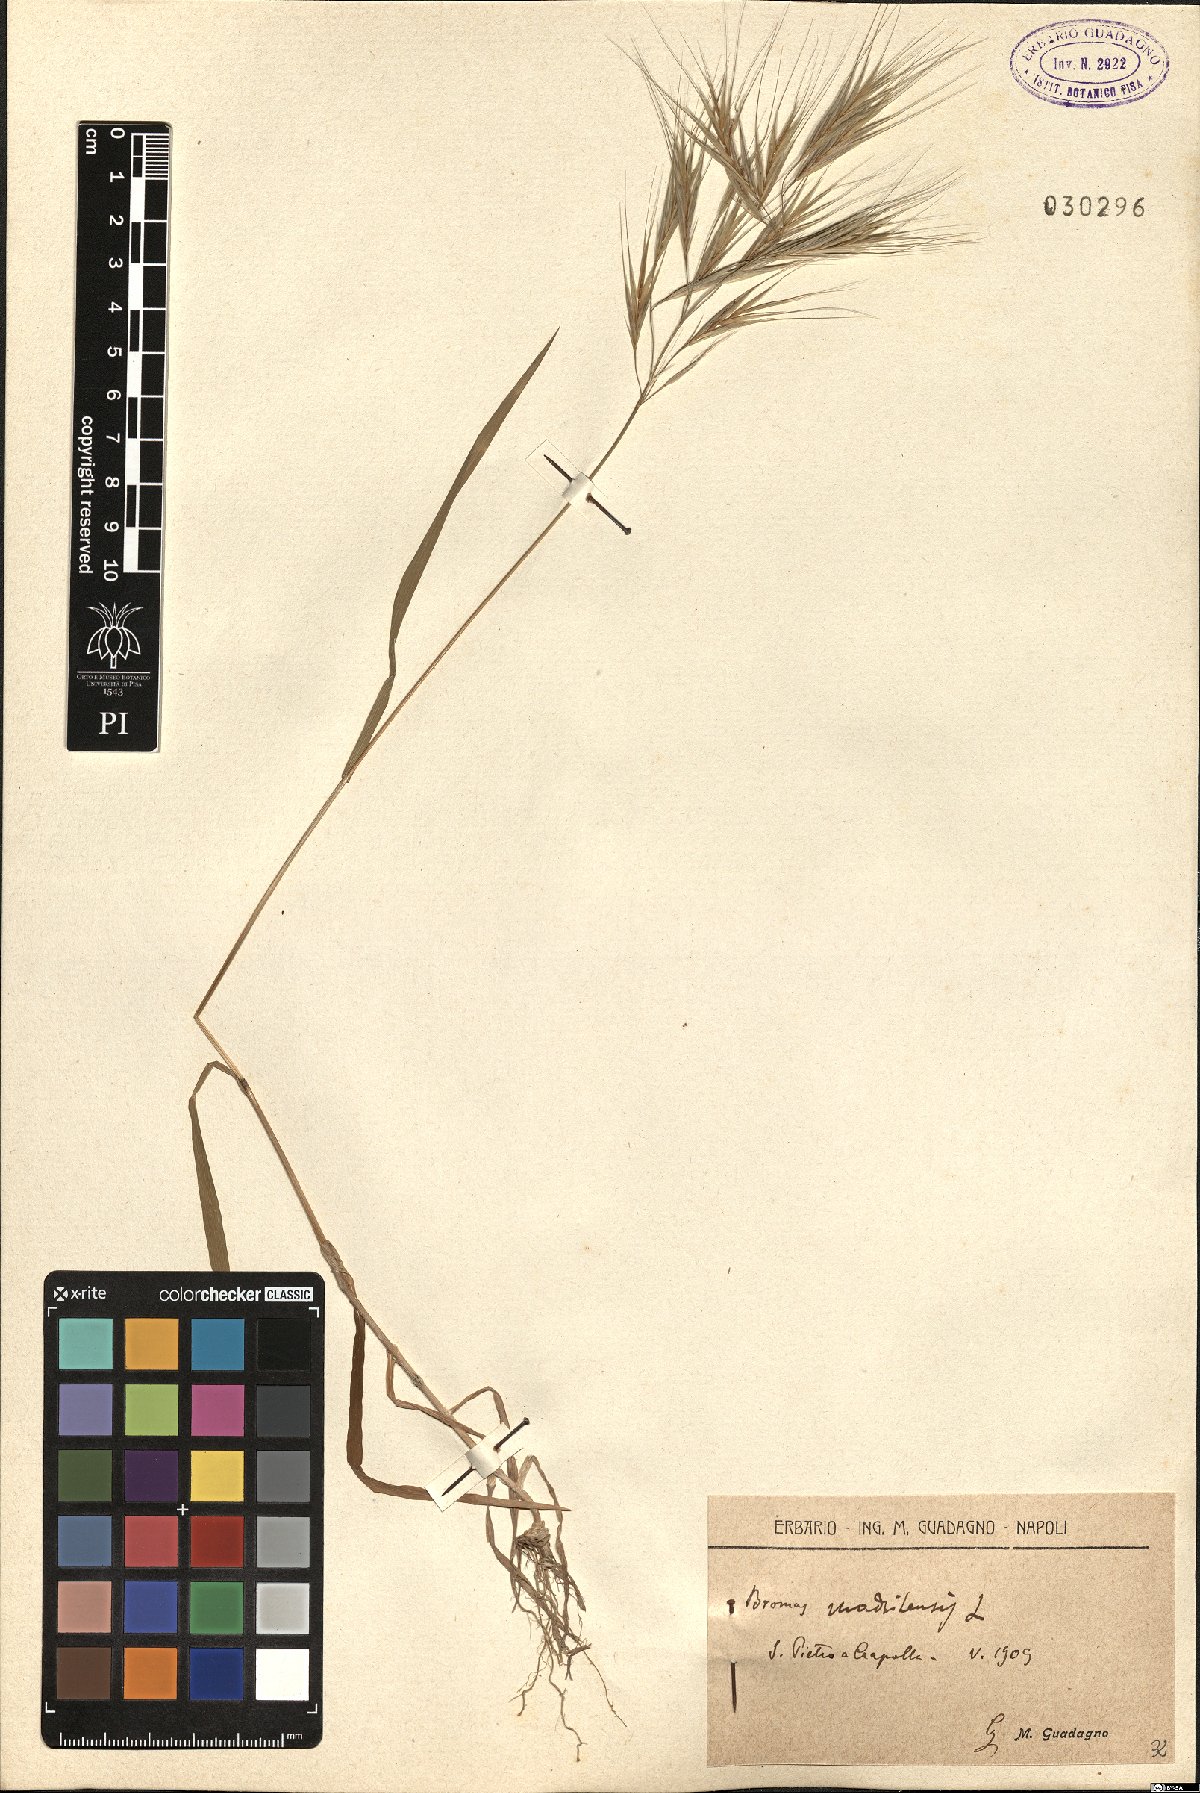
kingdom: Plantae
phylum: Tracheophyta
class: Liliopsida
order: Poales
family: Poaceae
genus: Bromus
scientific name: Bromus madritensis
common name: Compact brome
